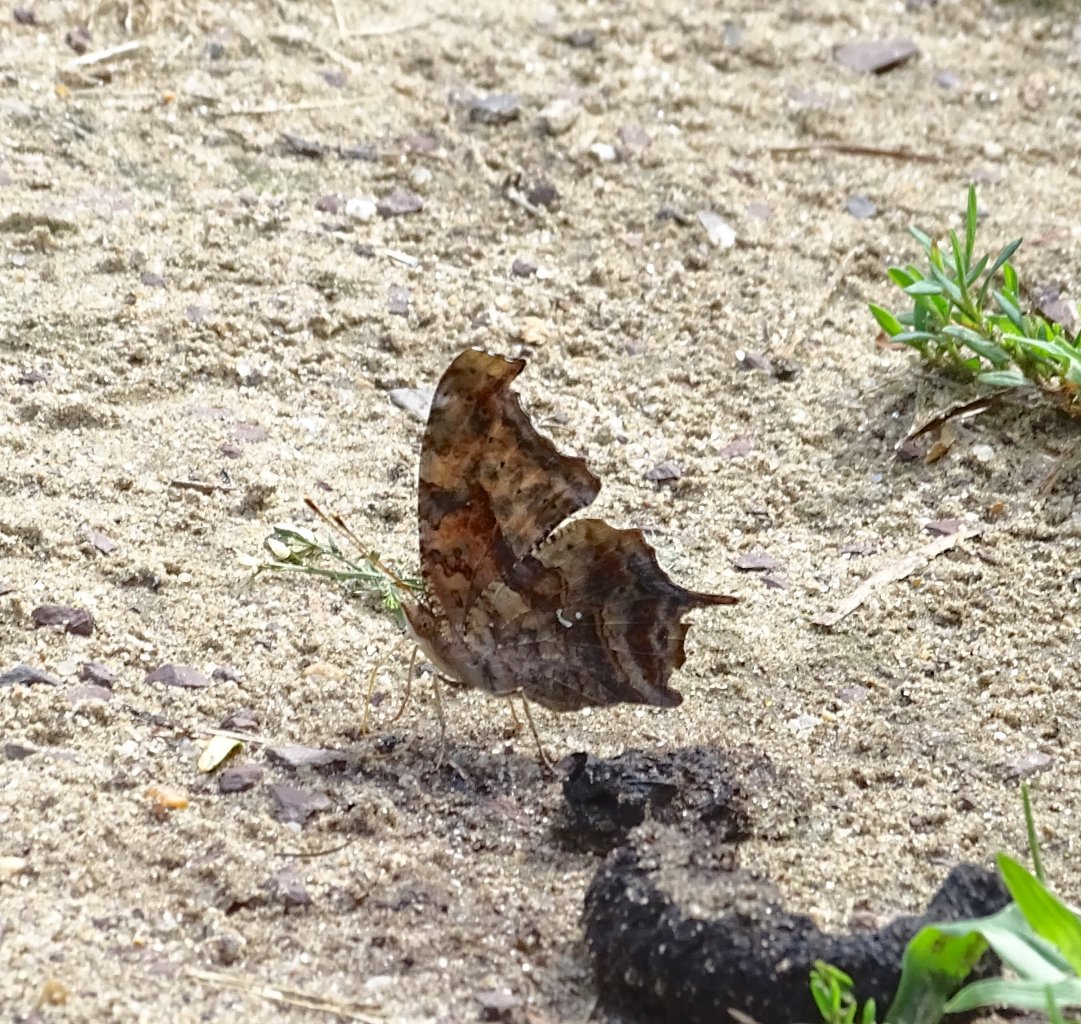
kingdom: Animalia
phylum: Arthropoda
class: Insecta
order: Lepidoptera
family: Nymphalidae
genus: Polygonia
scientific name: Polygonia interrogationis
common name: Question Mark
